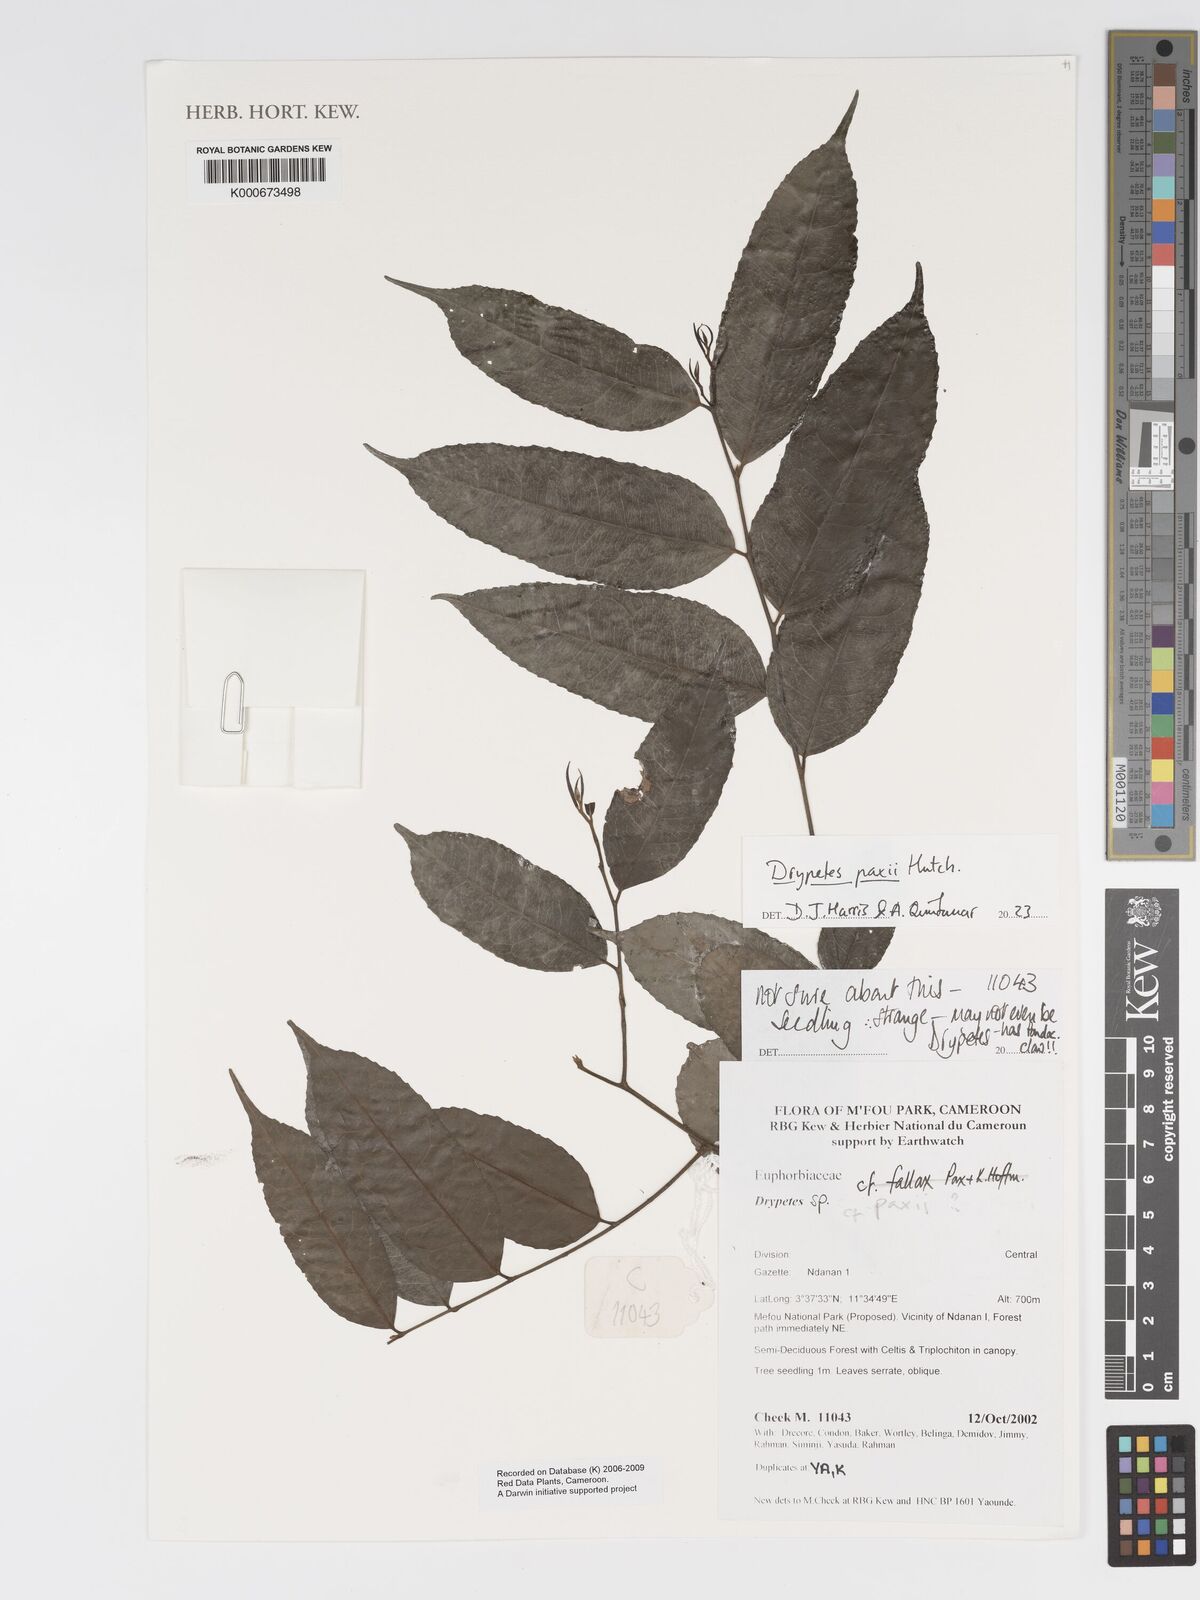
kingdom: Plantae
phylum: Tracheophyta
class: Magnoliopsida
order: Malpighiales
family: Putranjivaceae
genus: Drypetes
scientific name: Drypetes
